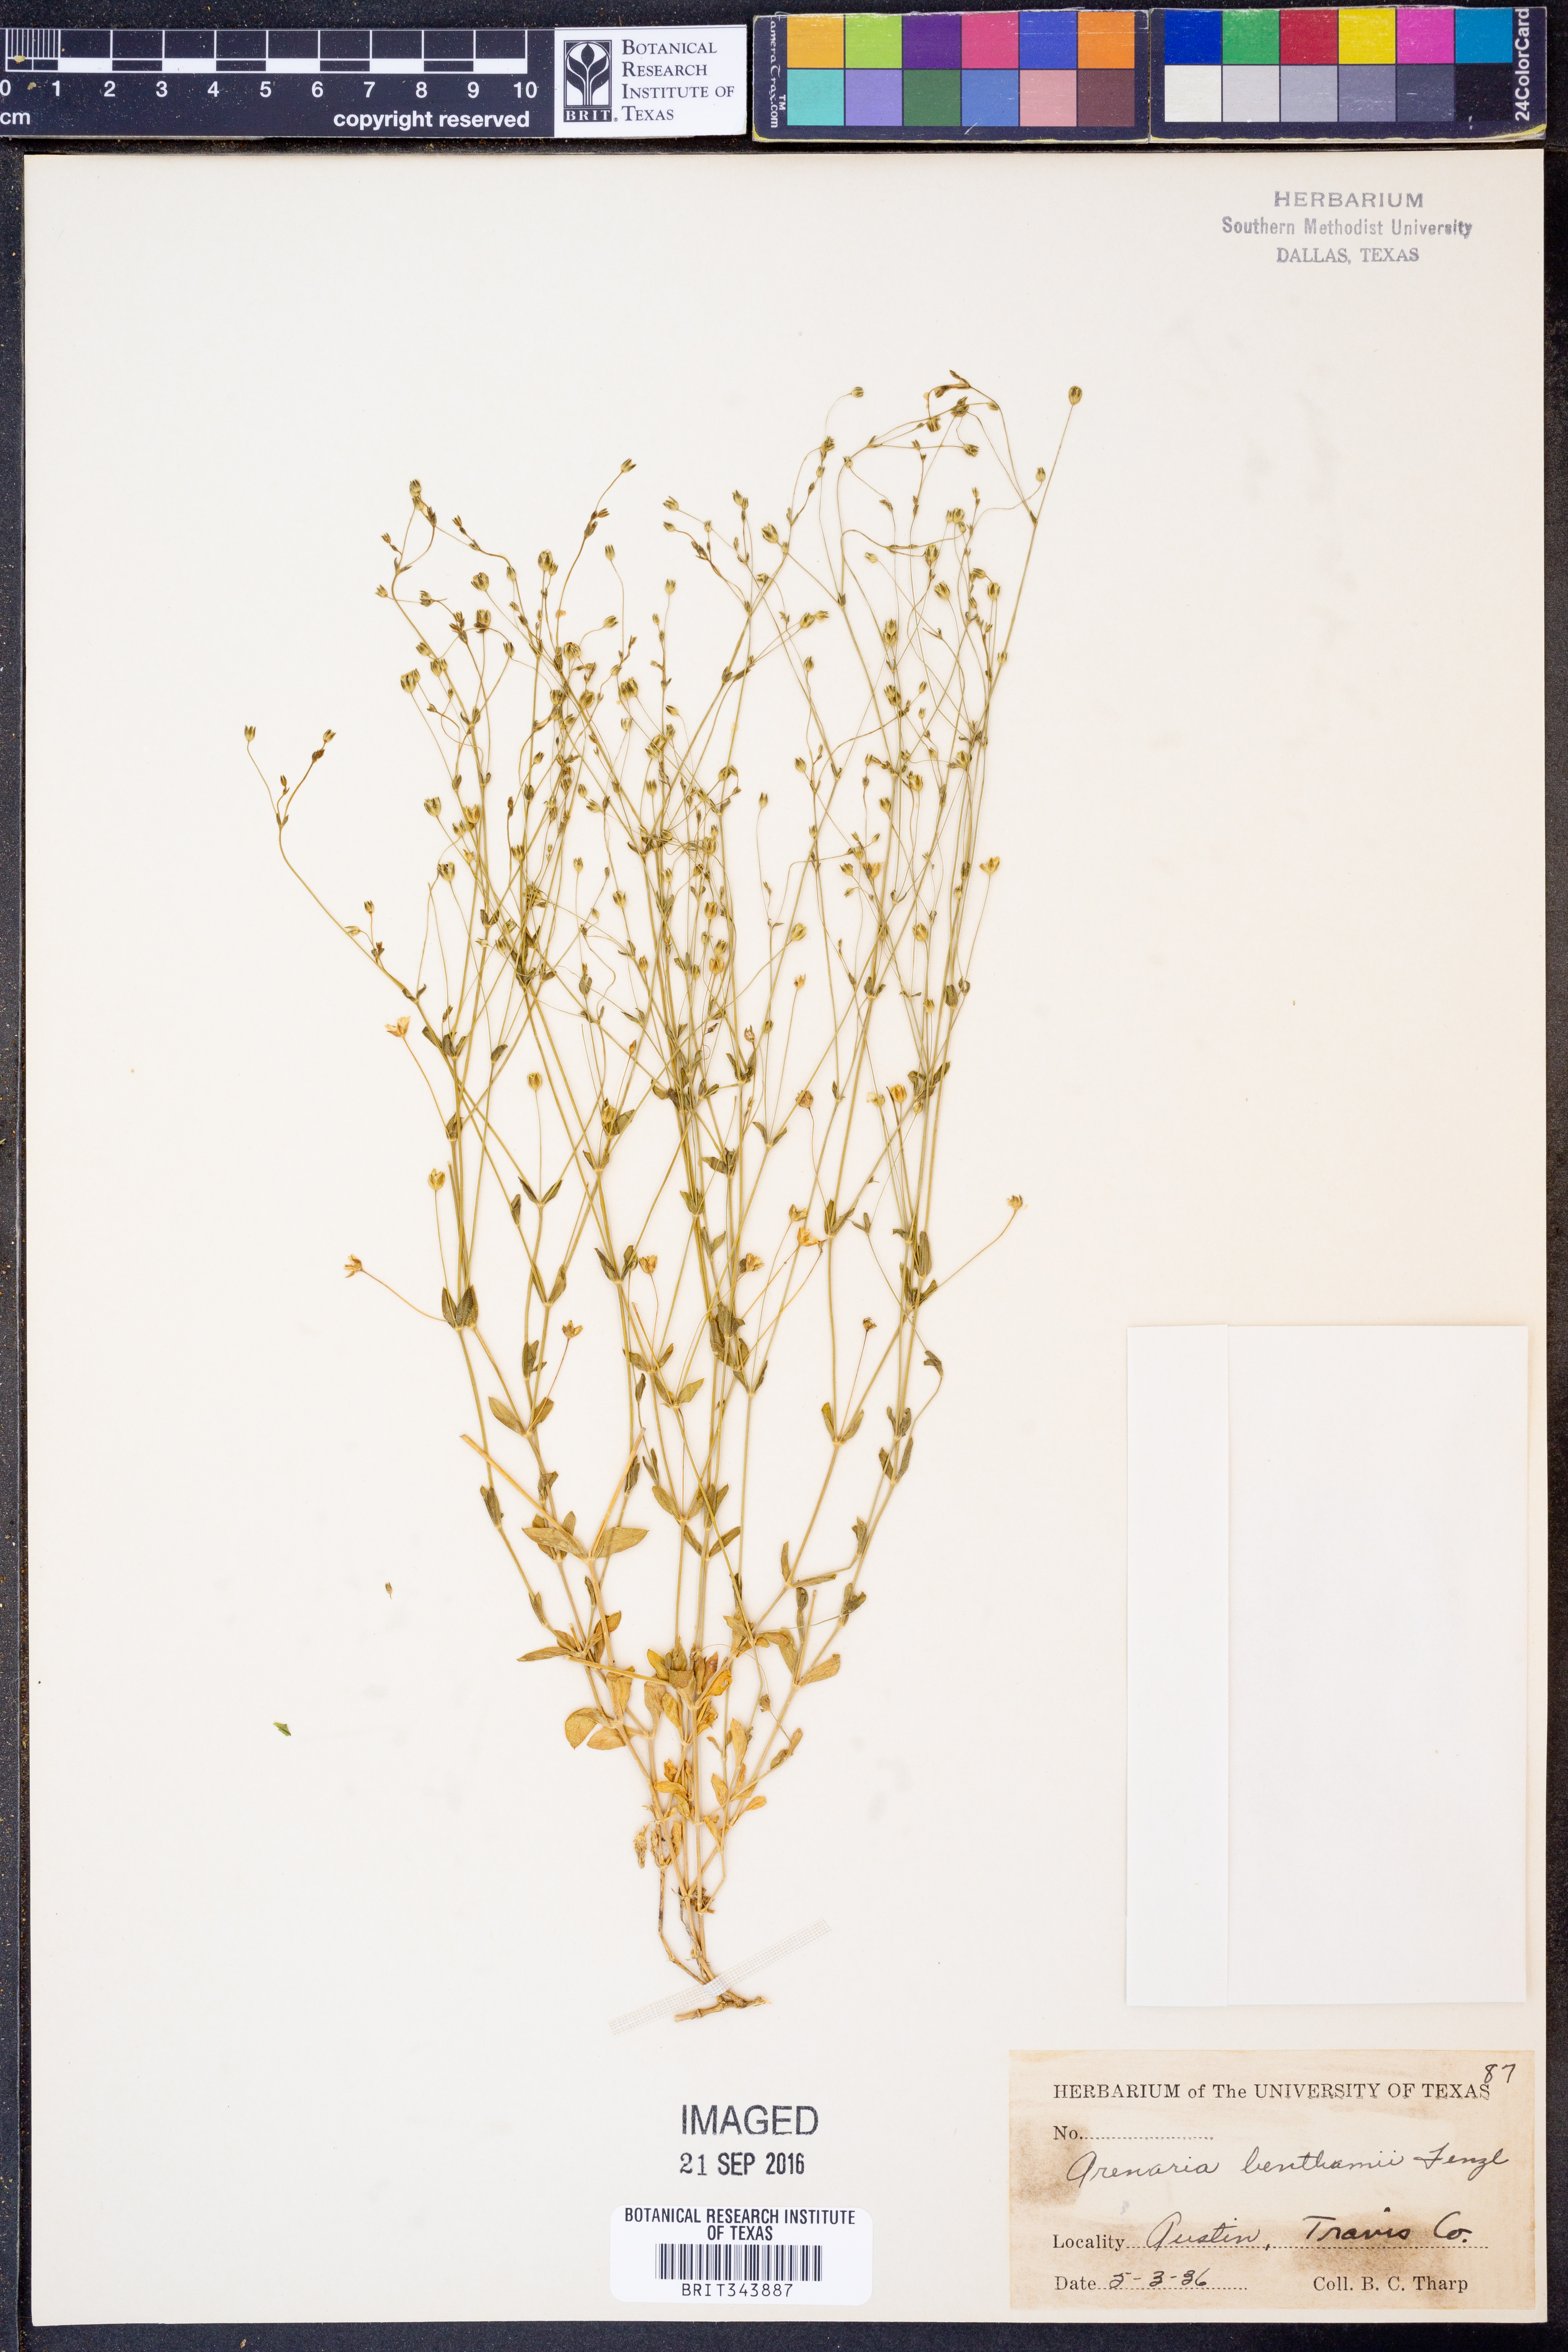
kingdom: Plantae
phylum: Tracheophyta
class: Magnoliopsida
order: Caryophyllales
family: Caryophyllaceae
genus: Arenaria
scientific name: Arenaria benthamii
